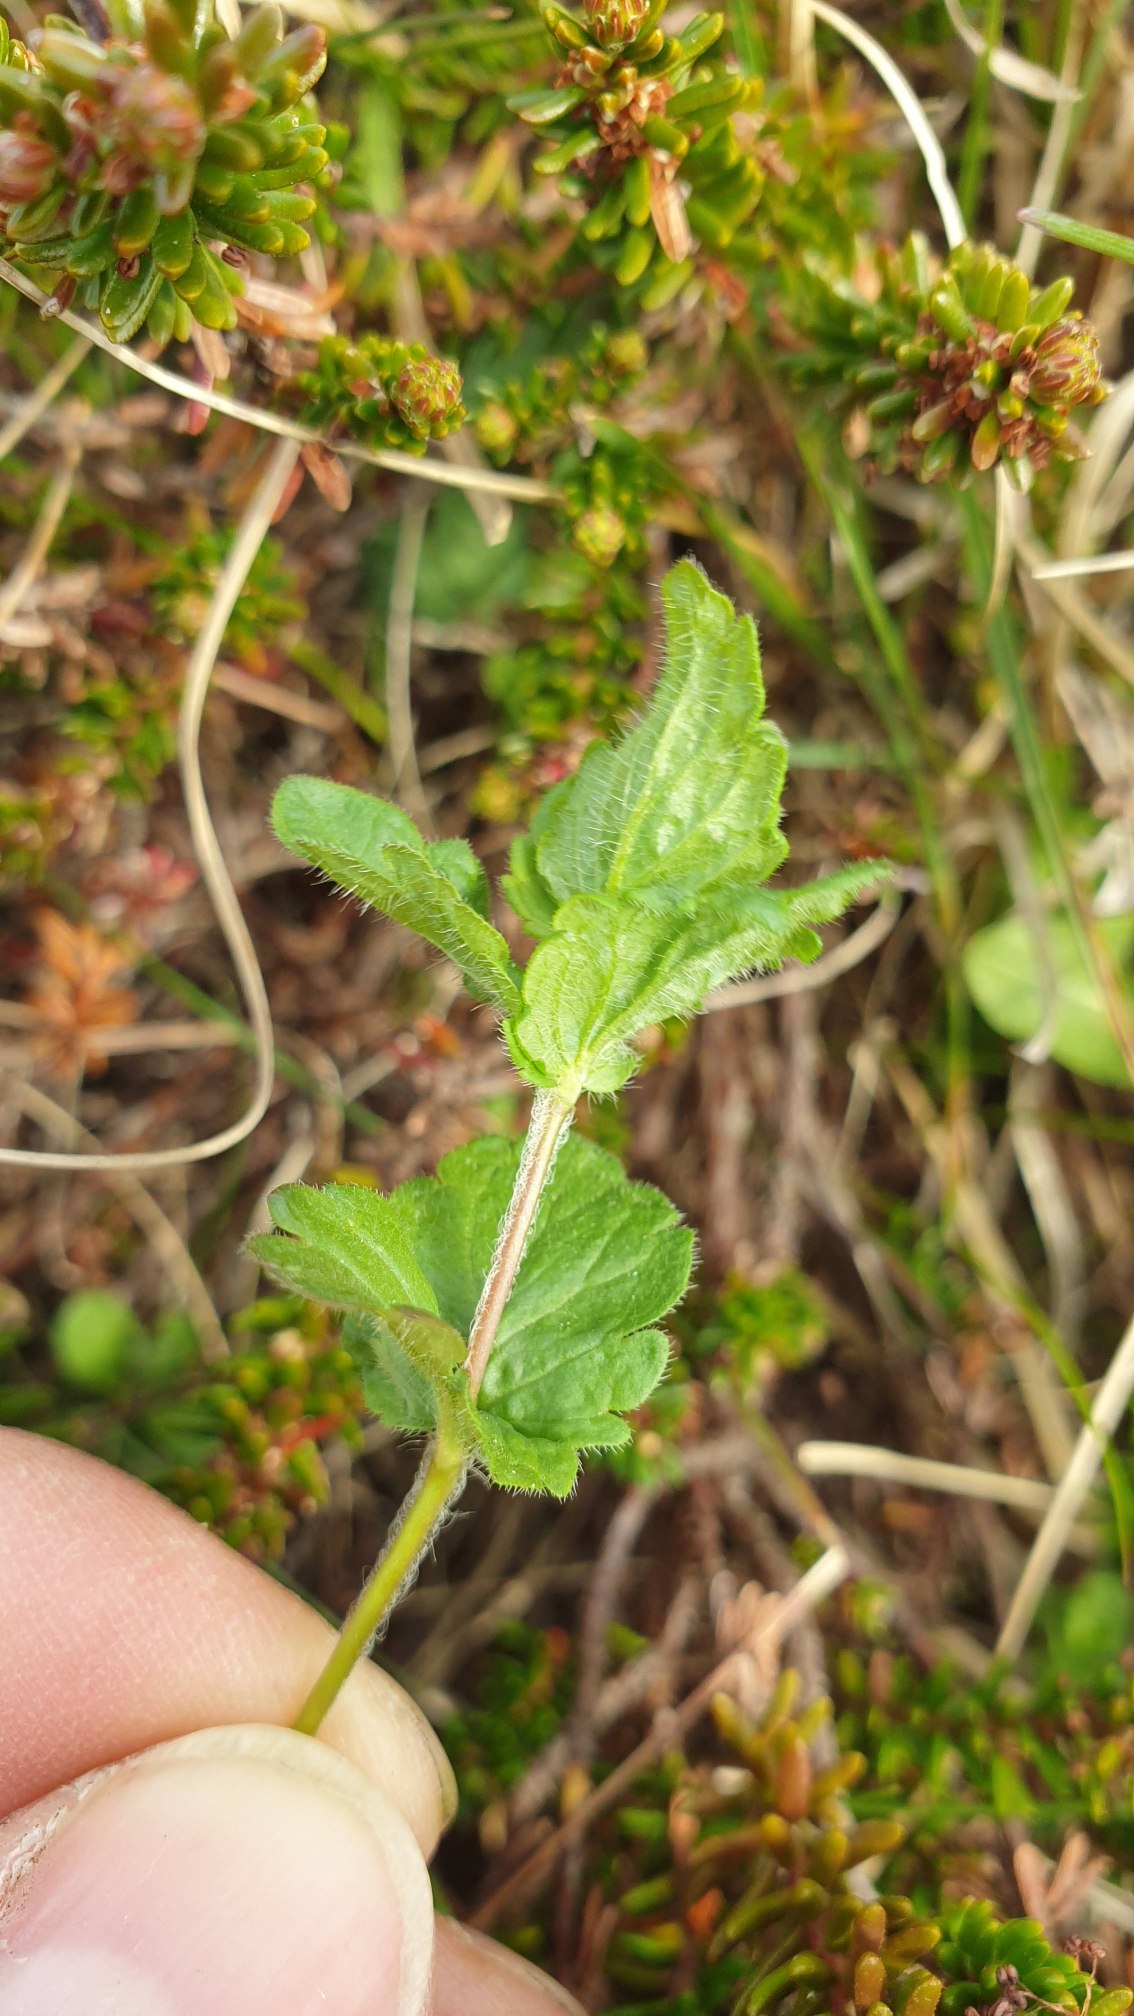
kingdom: Plantae
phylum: Tracheophyta
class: Magnoliopsida
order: Lamiales
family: Plantaginaceae
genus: Veronica
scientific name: Veronica chamaedrys
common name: Tveskægget ærenpris
